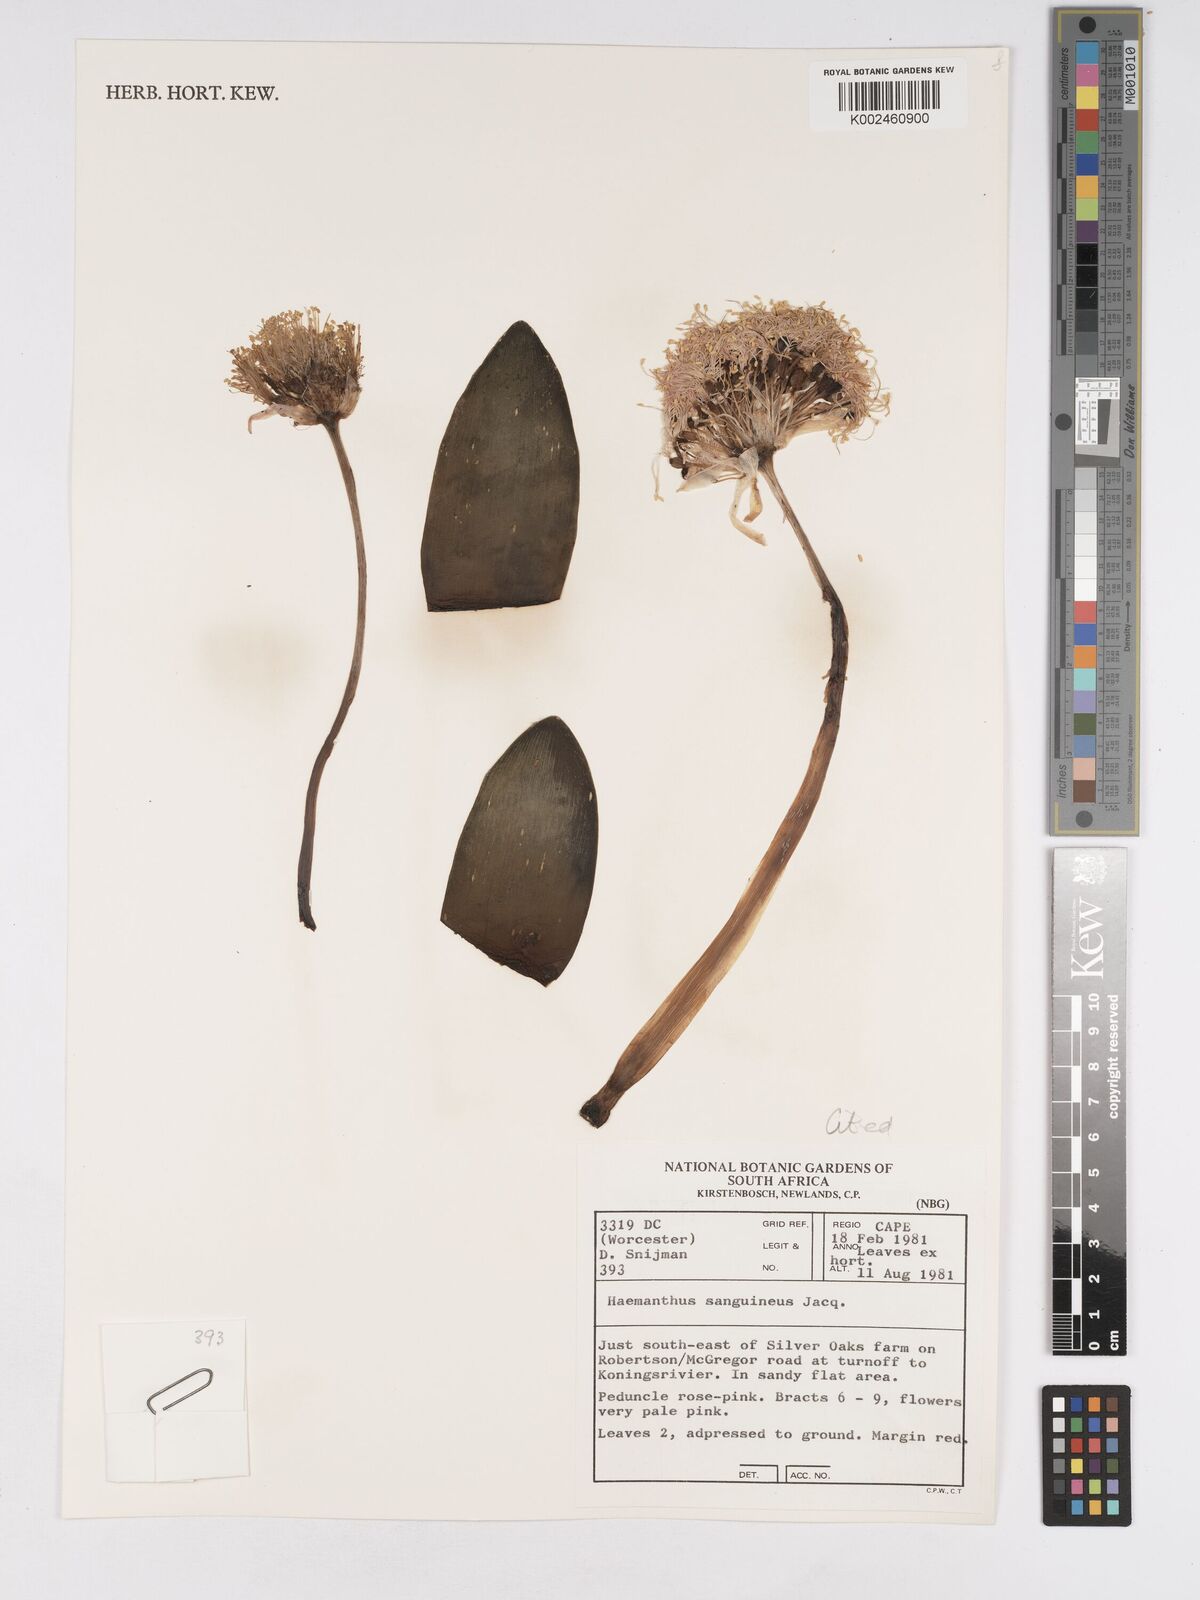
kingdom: Plantae
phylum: Tracheophyta
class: Liliopsida
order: Asparagales
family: Amaryllidaceae
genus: Haemanthus
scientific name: Haemanthus sanguineus
